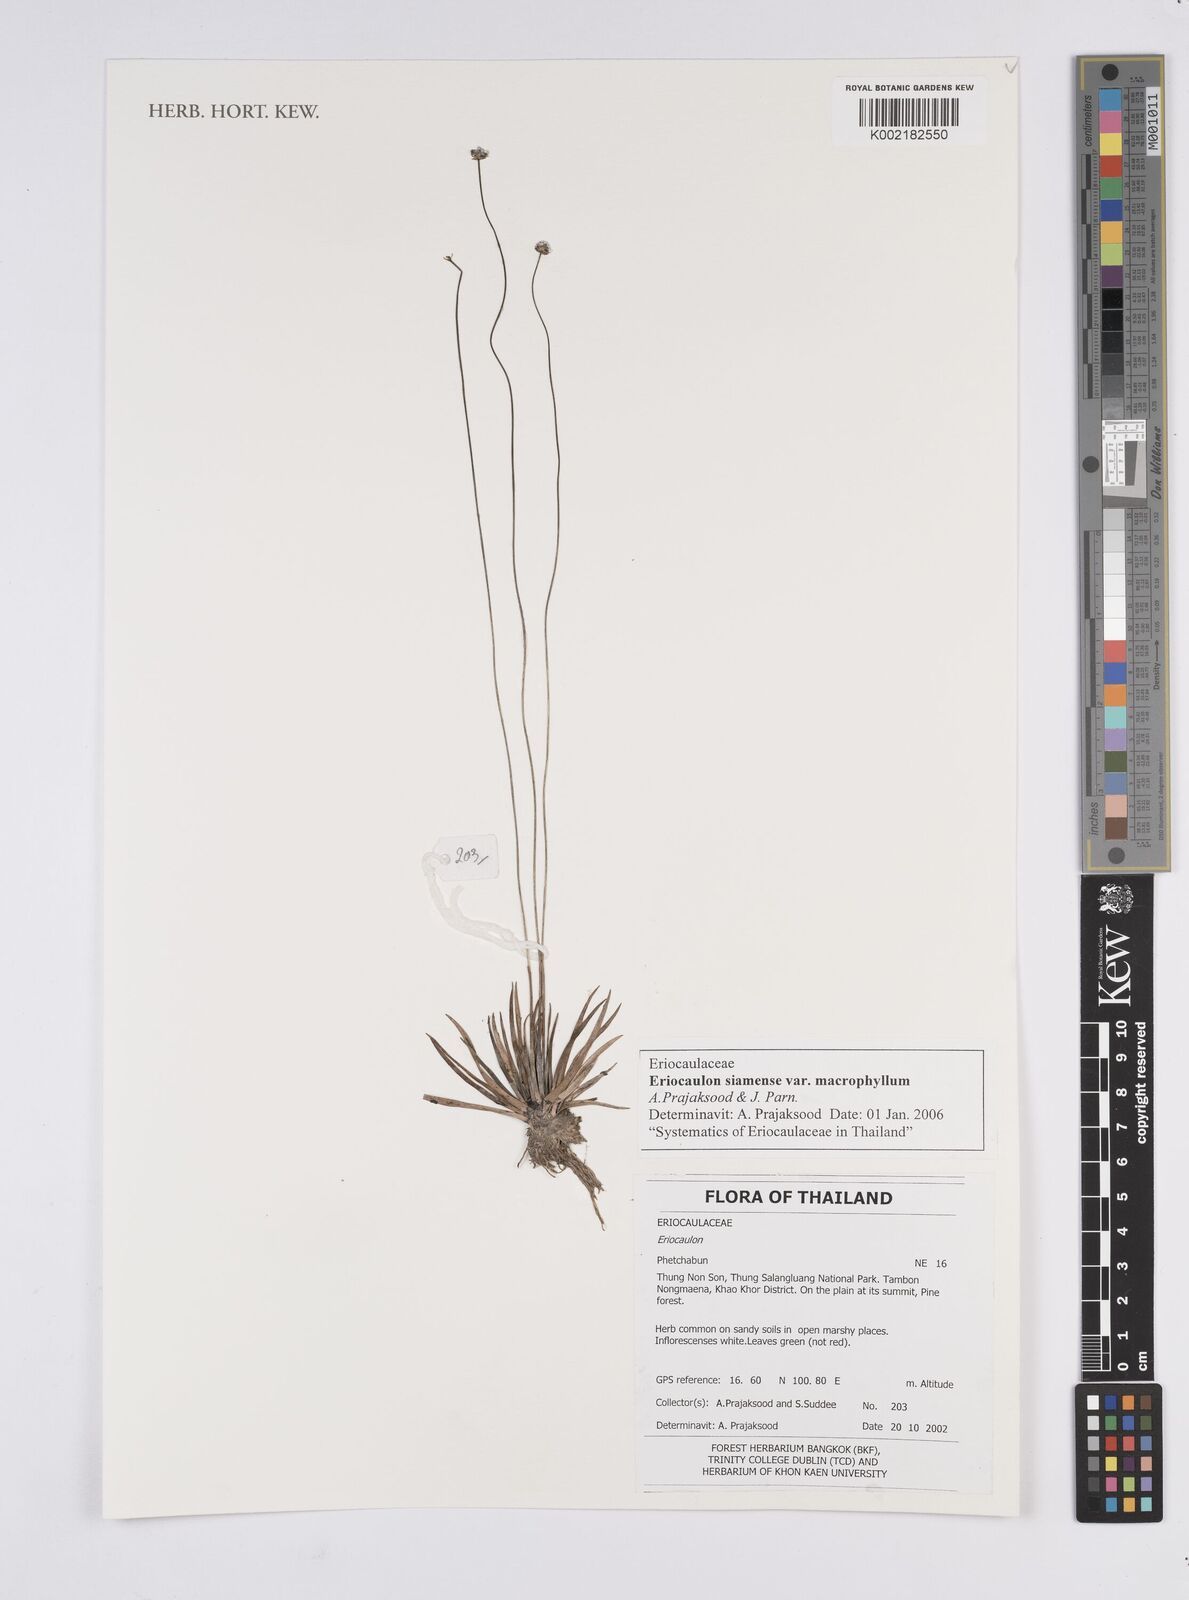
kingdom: Plantae
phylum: Tracheophyta
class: Liliopsida
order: Poales
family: Eriocaulaceae
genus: Eriocaulon
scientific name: Eriocaulon siamense
